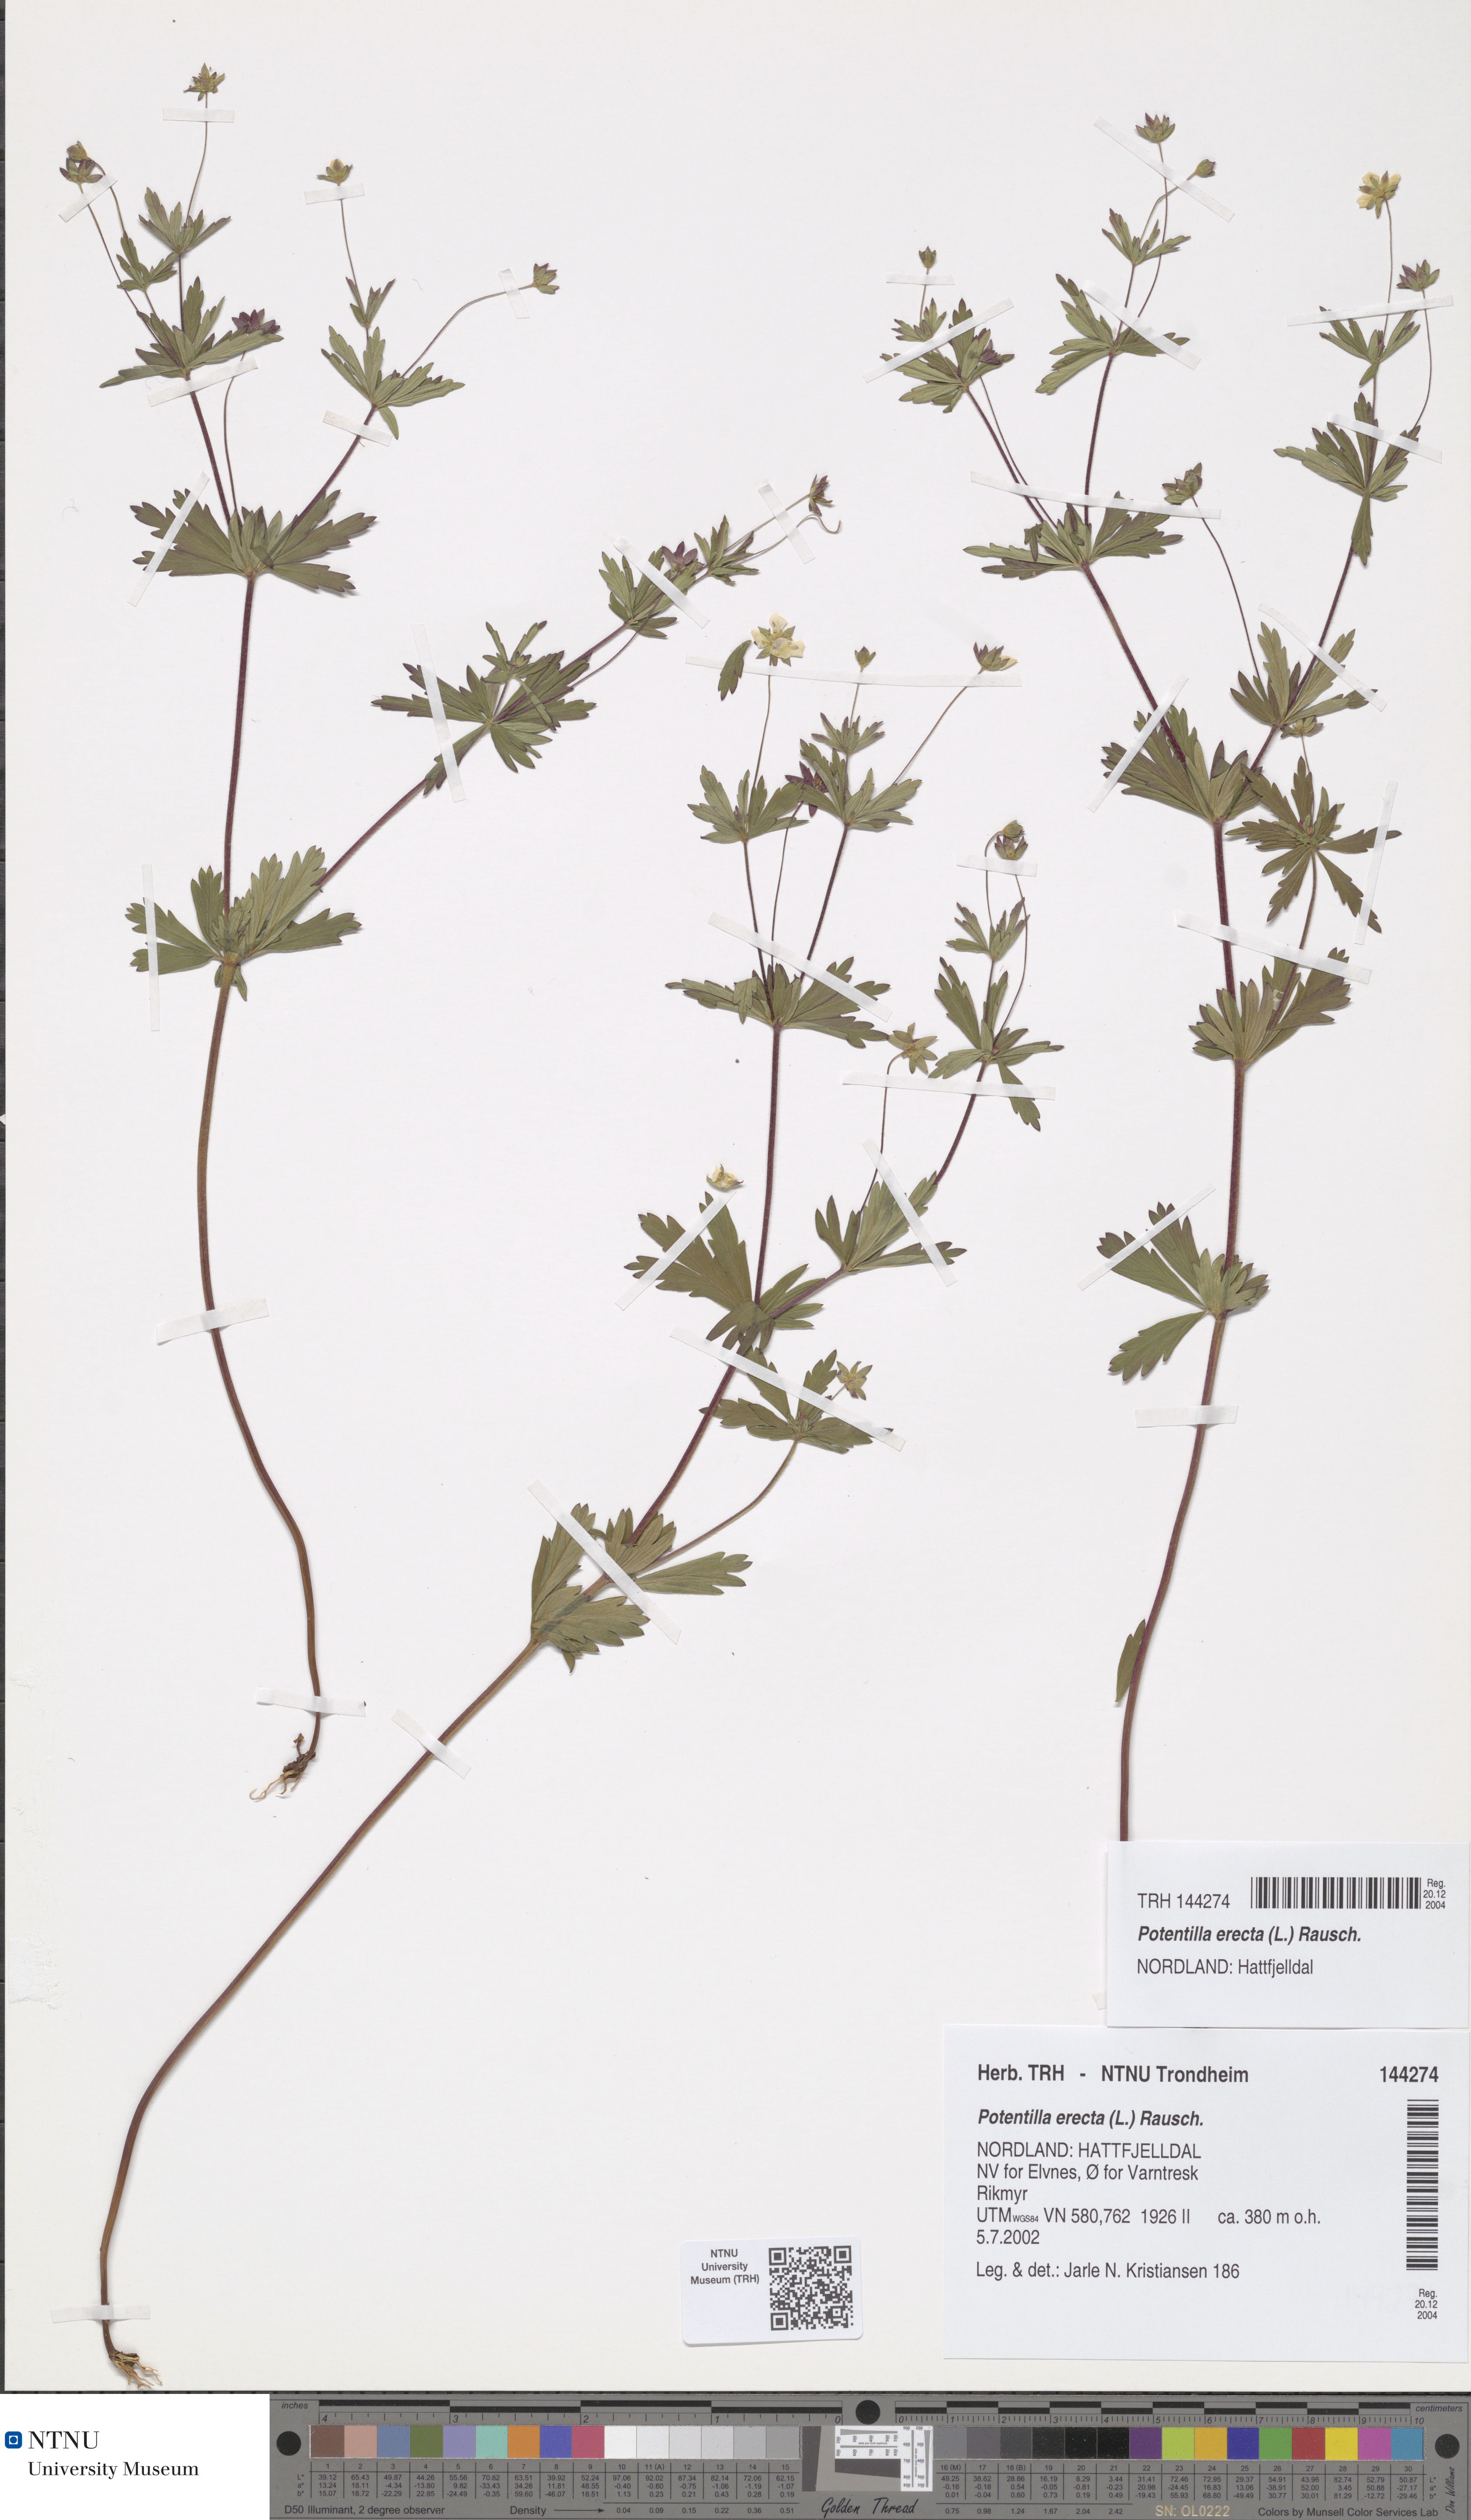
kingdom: Plantae
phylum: Tracheophyta
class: Magnoliopsida
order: Rosales
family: Rosaceae
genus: Potentilla
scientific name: Potentilla erecta
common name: Tormentil
